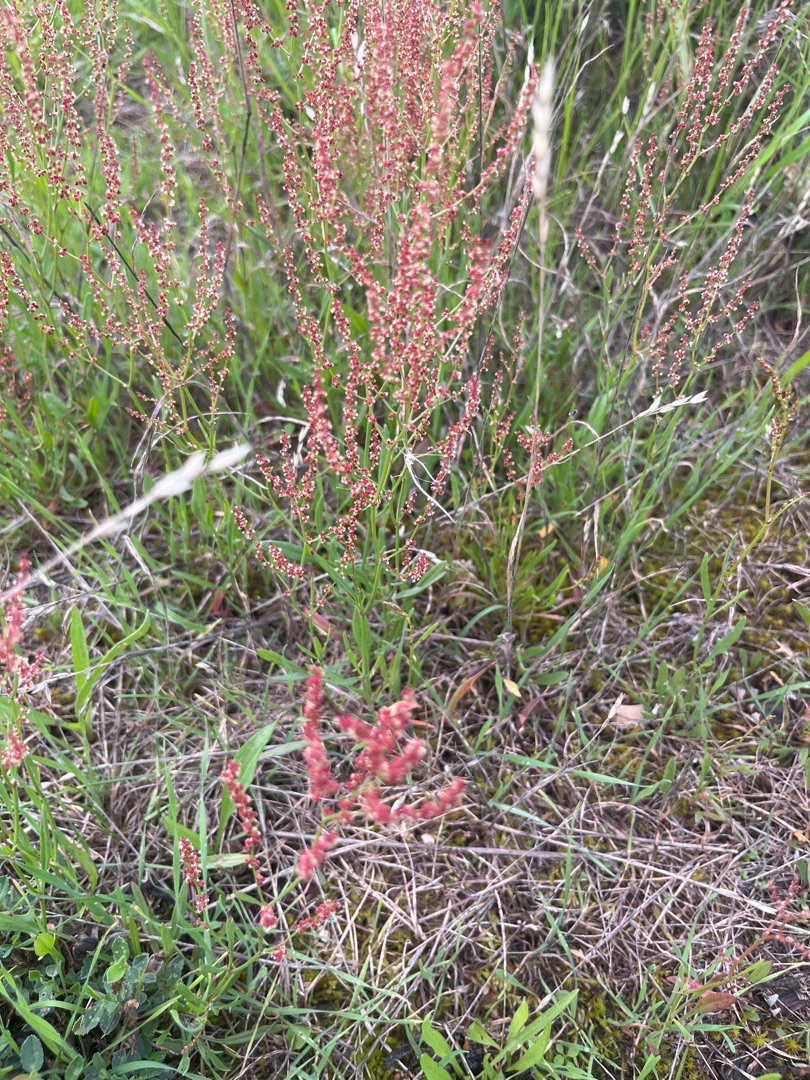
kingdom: Plantae
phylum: Tracheophyta
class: Magnoliopsida
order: Caryophyllales
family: Polygonaceae
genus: Rumex
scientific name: Rumex acetosella
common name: Rødknæ
